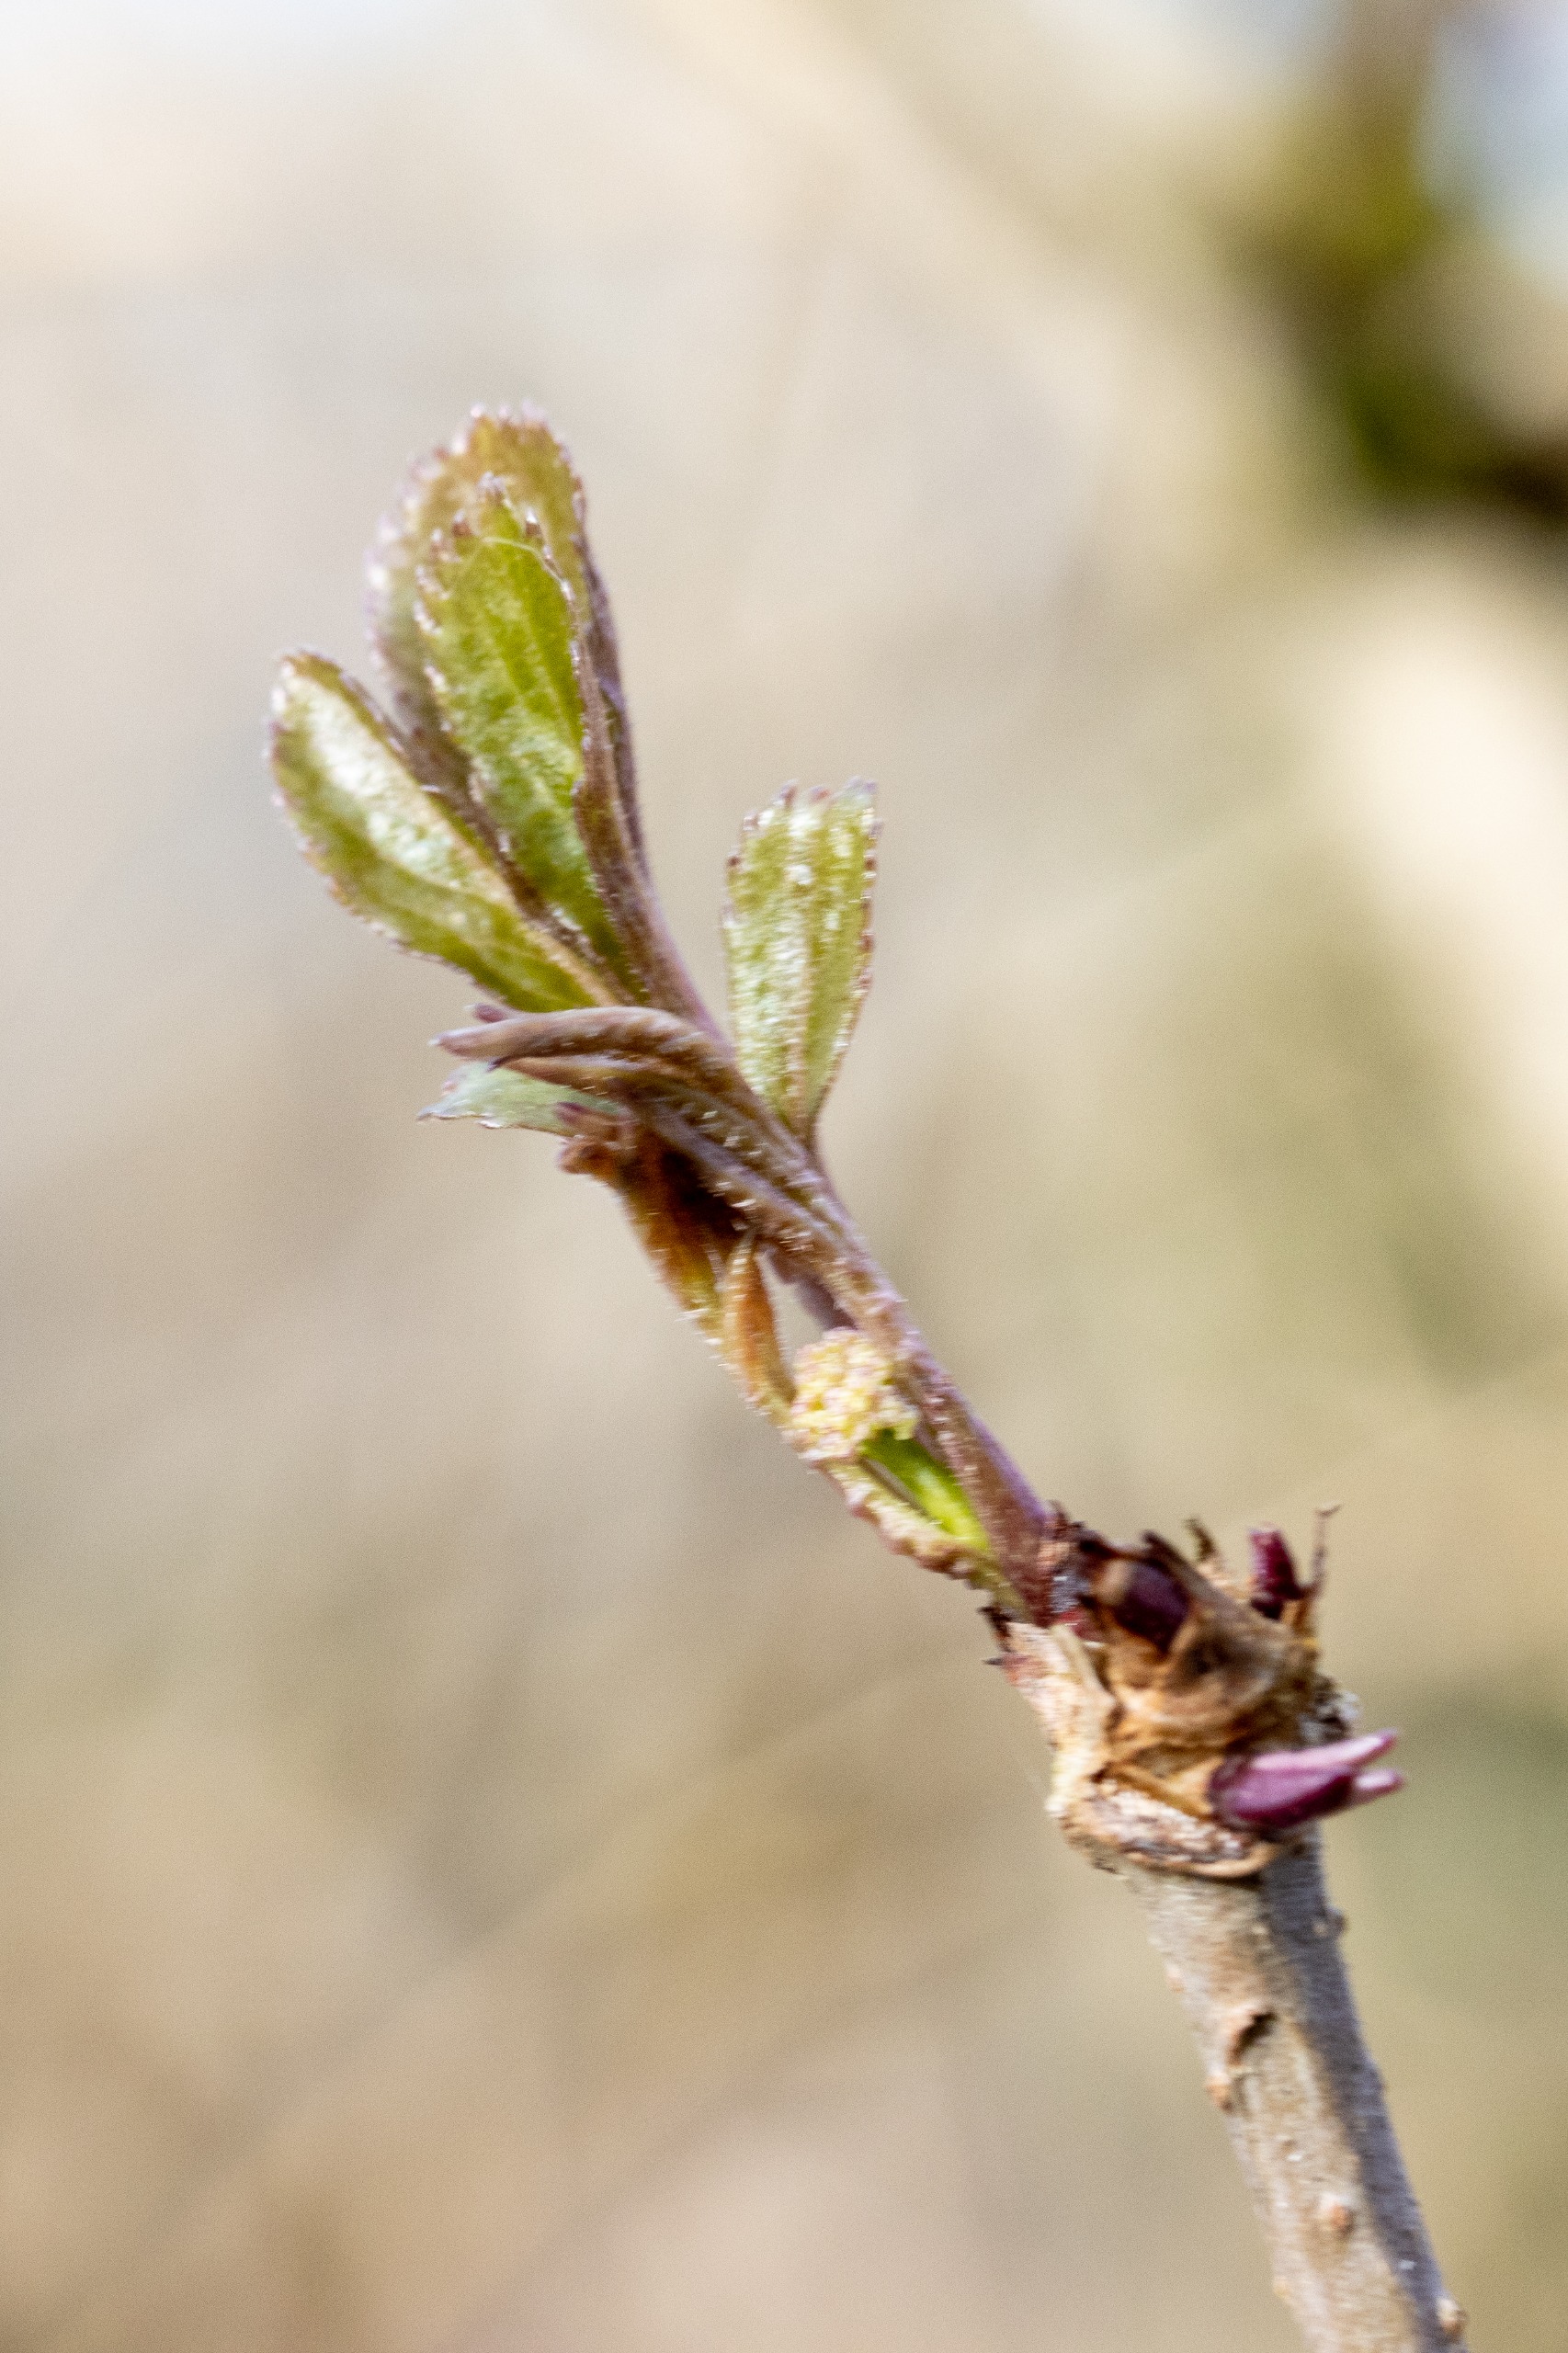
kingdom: Plantae
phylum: Tracheophyta
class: Magnoliopsida
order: Dipsacales
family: Viburnaceae
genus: Sambucus
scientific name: Sambucus nigra
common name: Almindelig hyld
